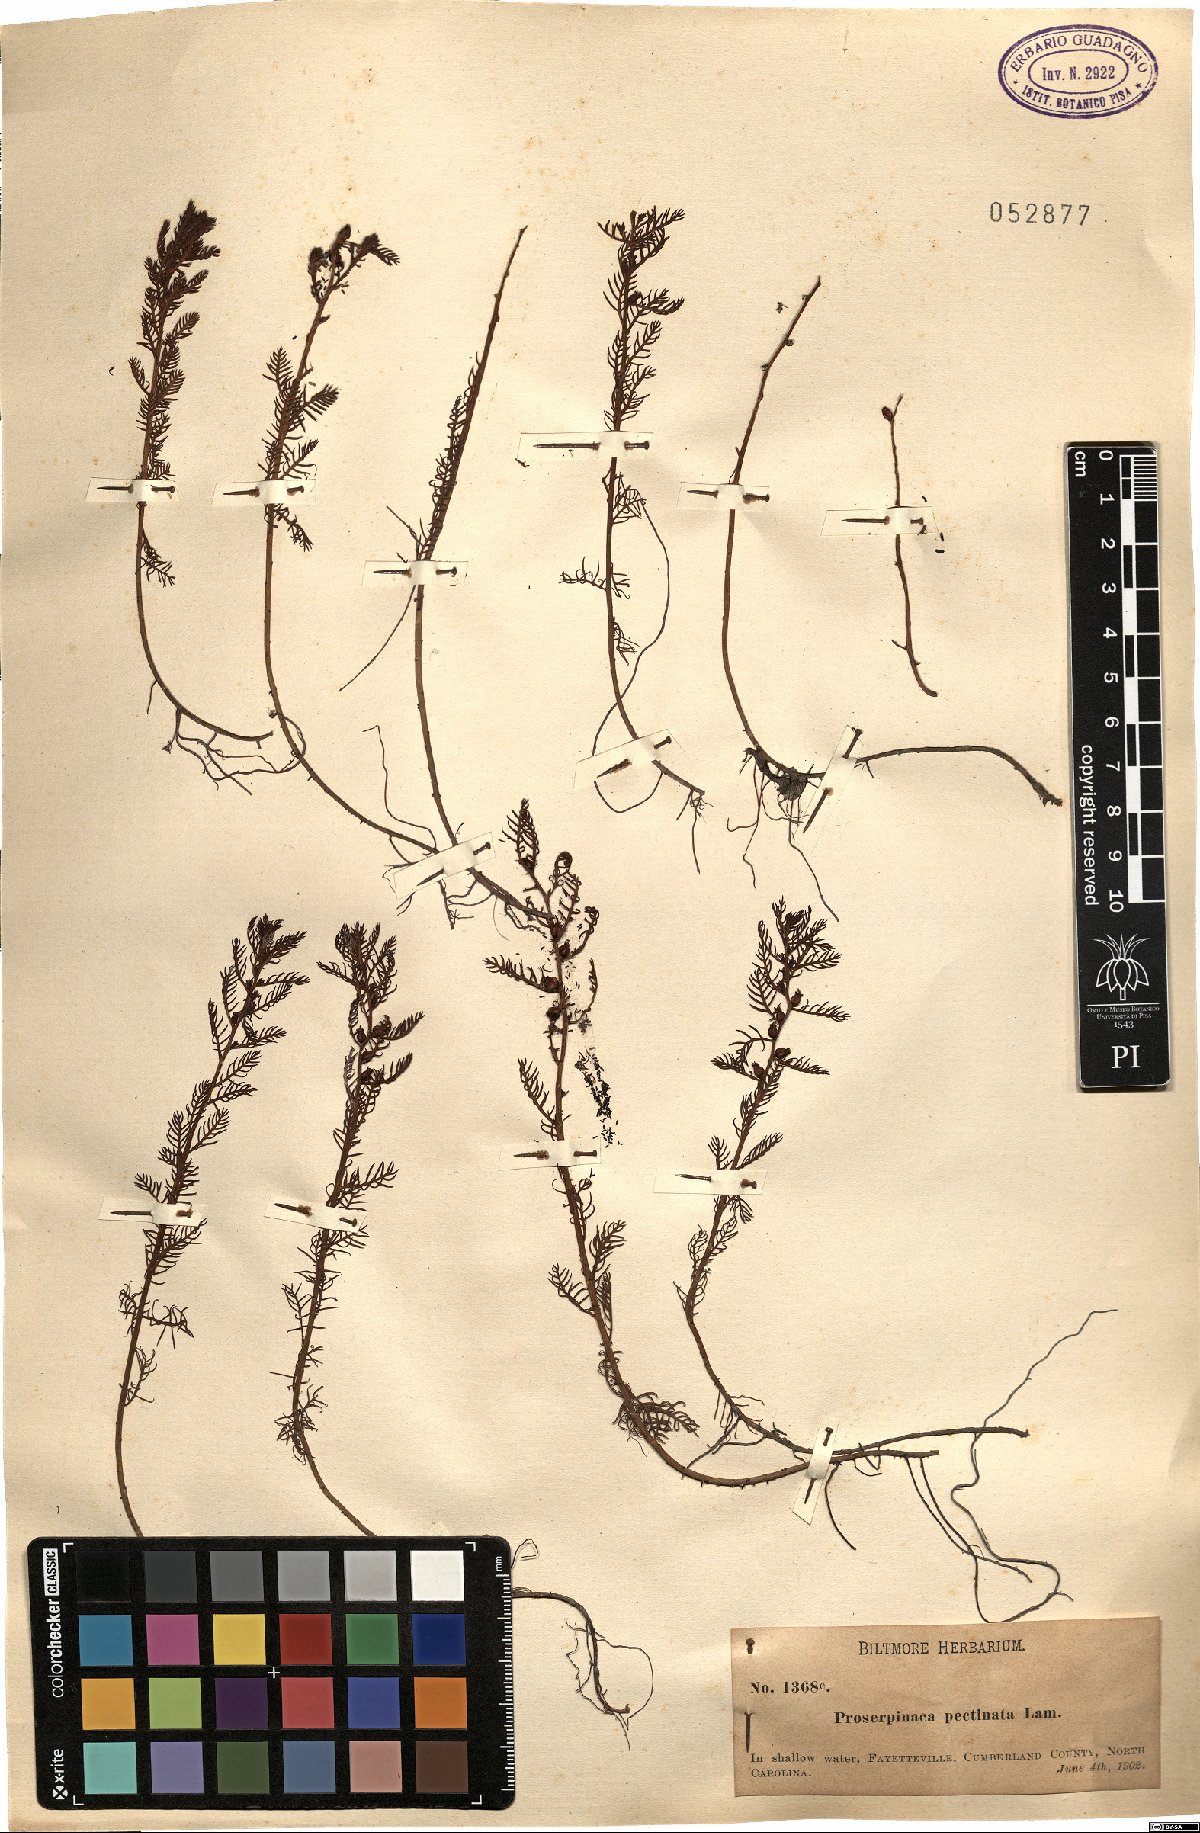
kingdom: Plantae
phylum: Tracheophyta
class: Magnoliopsida
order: Saxifragales
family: Haloragaceae
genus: Proserpinaca
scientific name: Proserpinaca pectinata
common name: Comb-leaved mermaidweed
